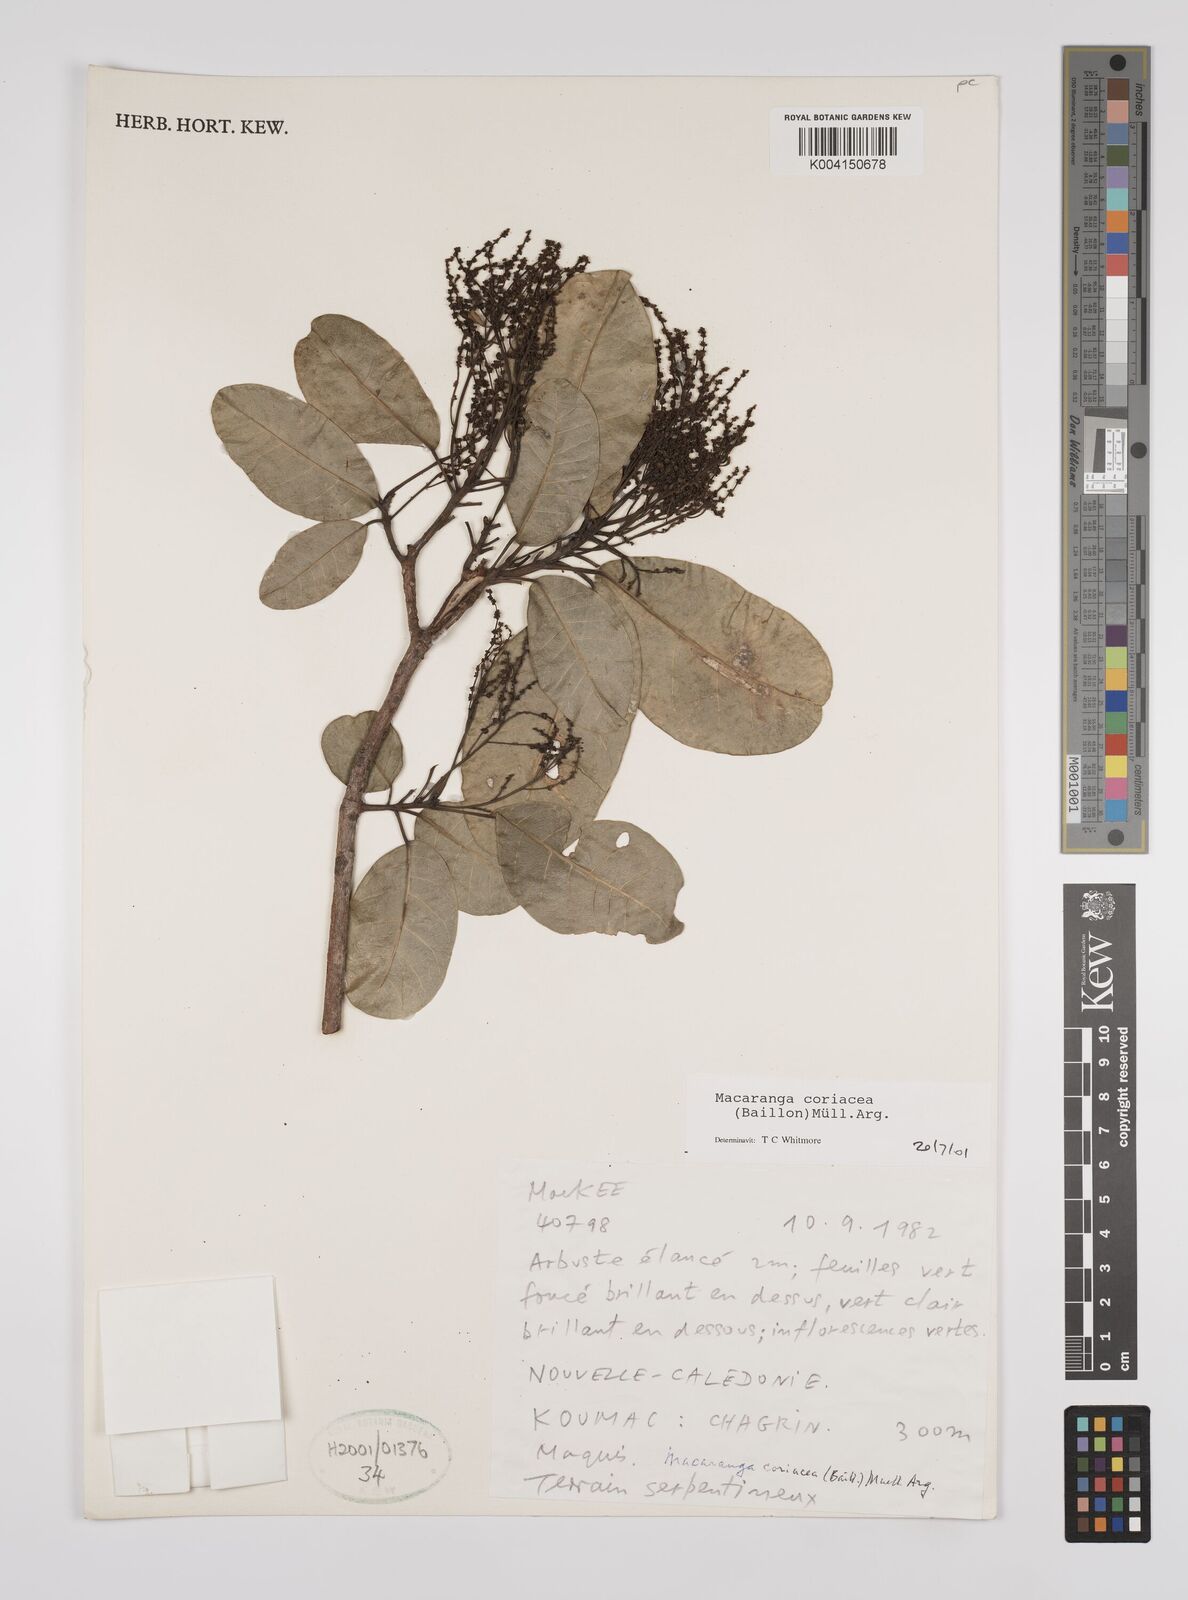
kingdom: Plantae
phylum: Tracheophyta
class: Magnoliopsida
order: Malpighiales
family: Euphorbiaceae
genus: Macaranga
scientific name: Macaranga coriacea
